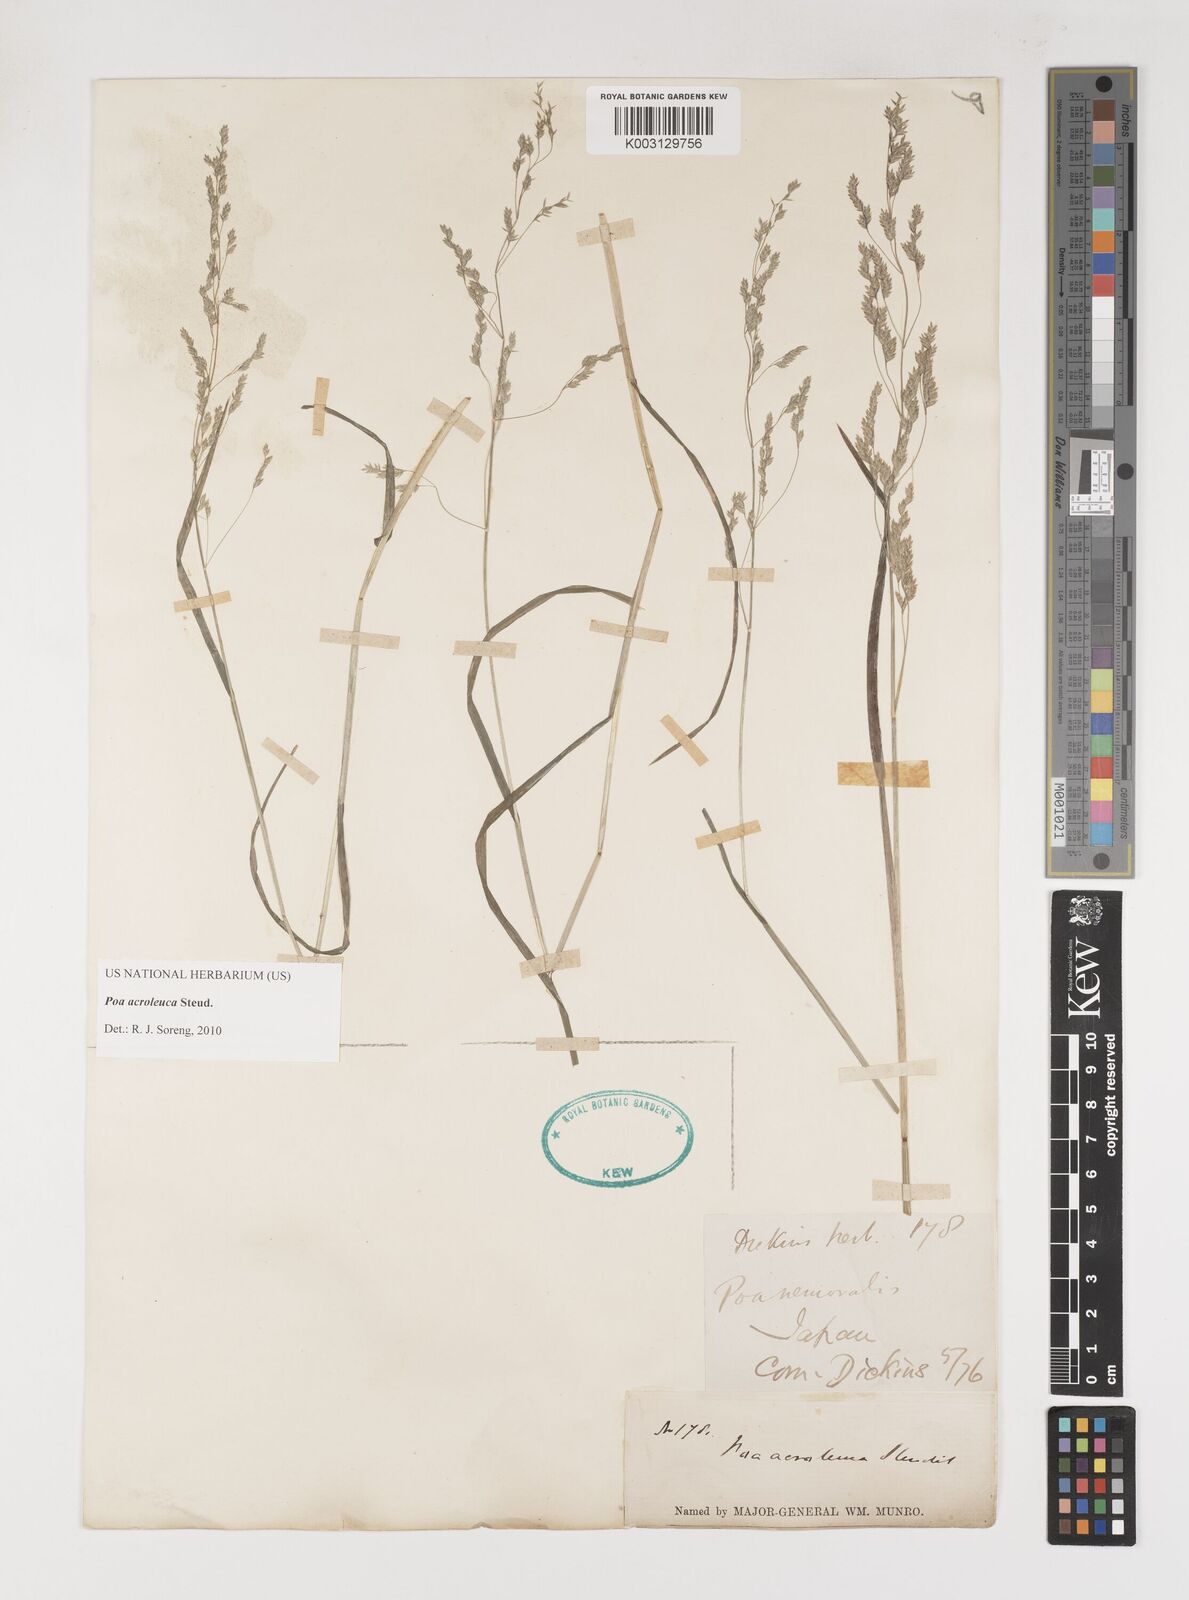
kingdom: Plantae
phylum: Tracheophyta
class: Liliopsida
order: Poales
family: Poaceae
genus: Poa
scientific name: Poa acroleuca
